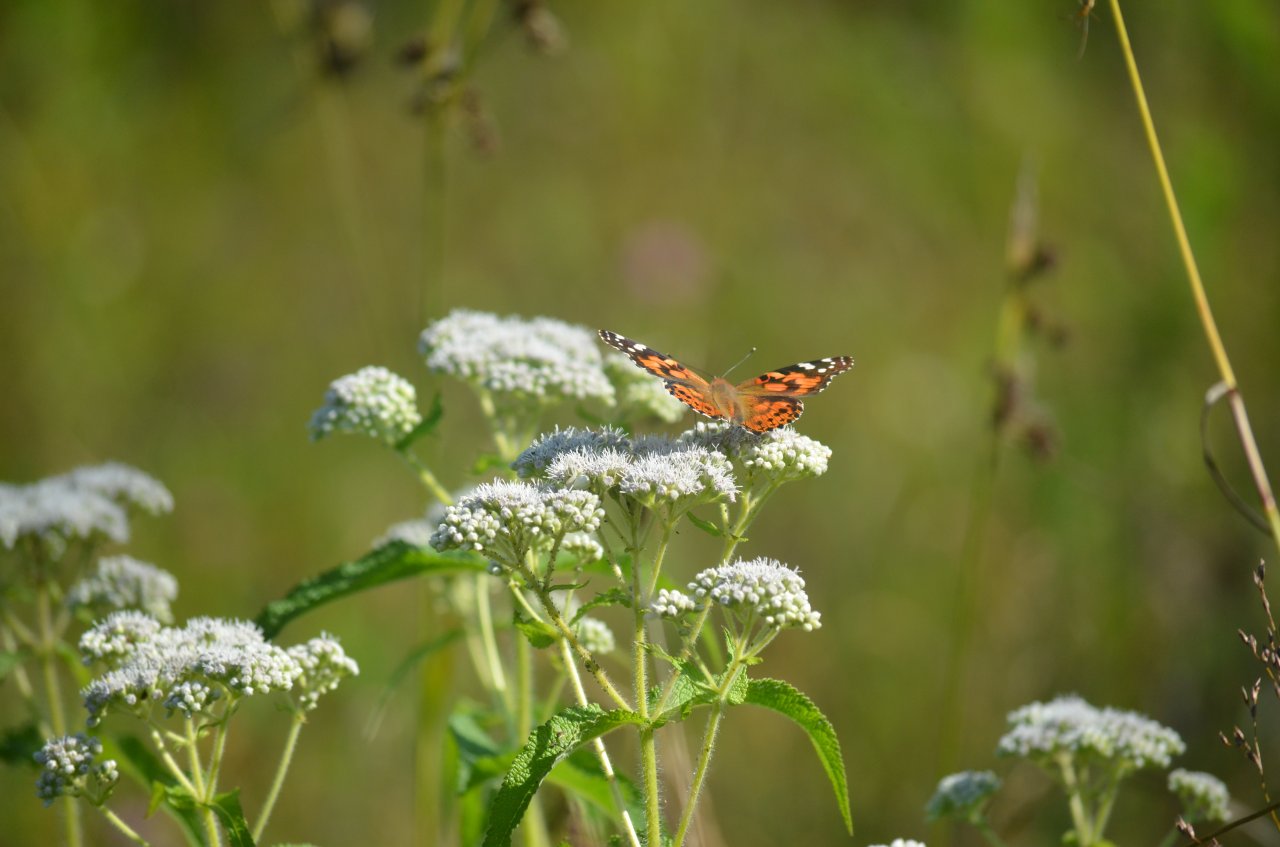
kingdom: Animalia
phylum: Arthropoda
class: Insecta
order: Lepidoptera
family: Nymphalidae
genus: Vanessa
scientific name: Vanessa cardui
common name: Painted Lady
